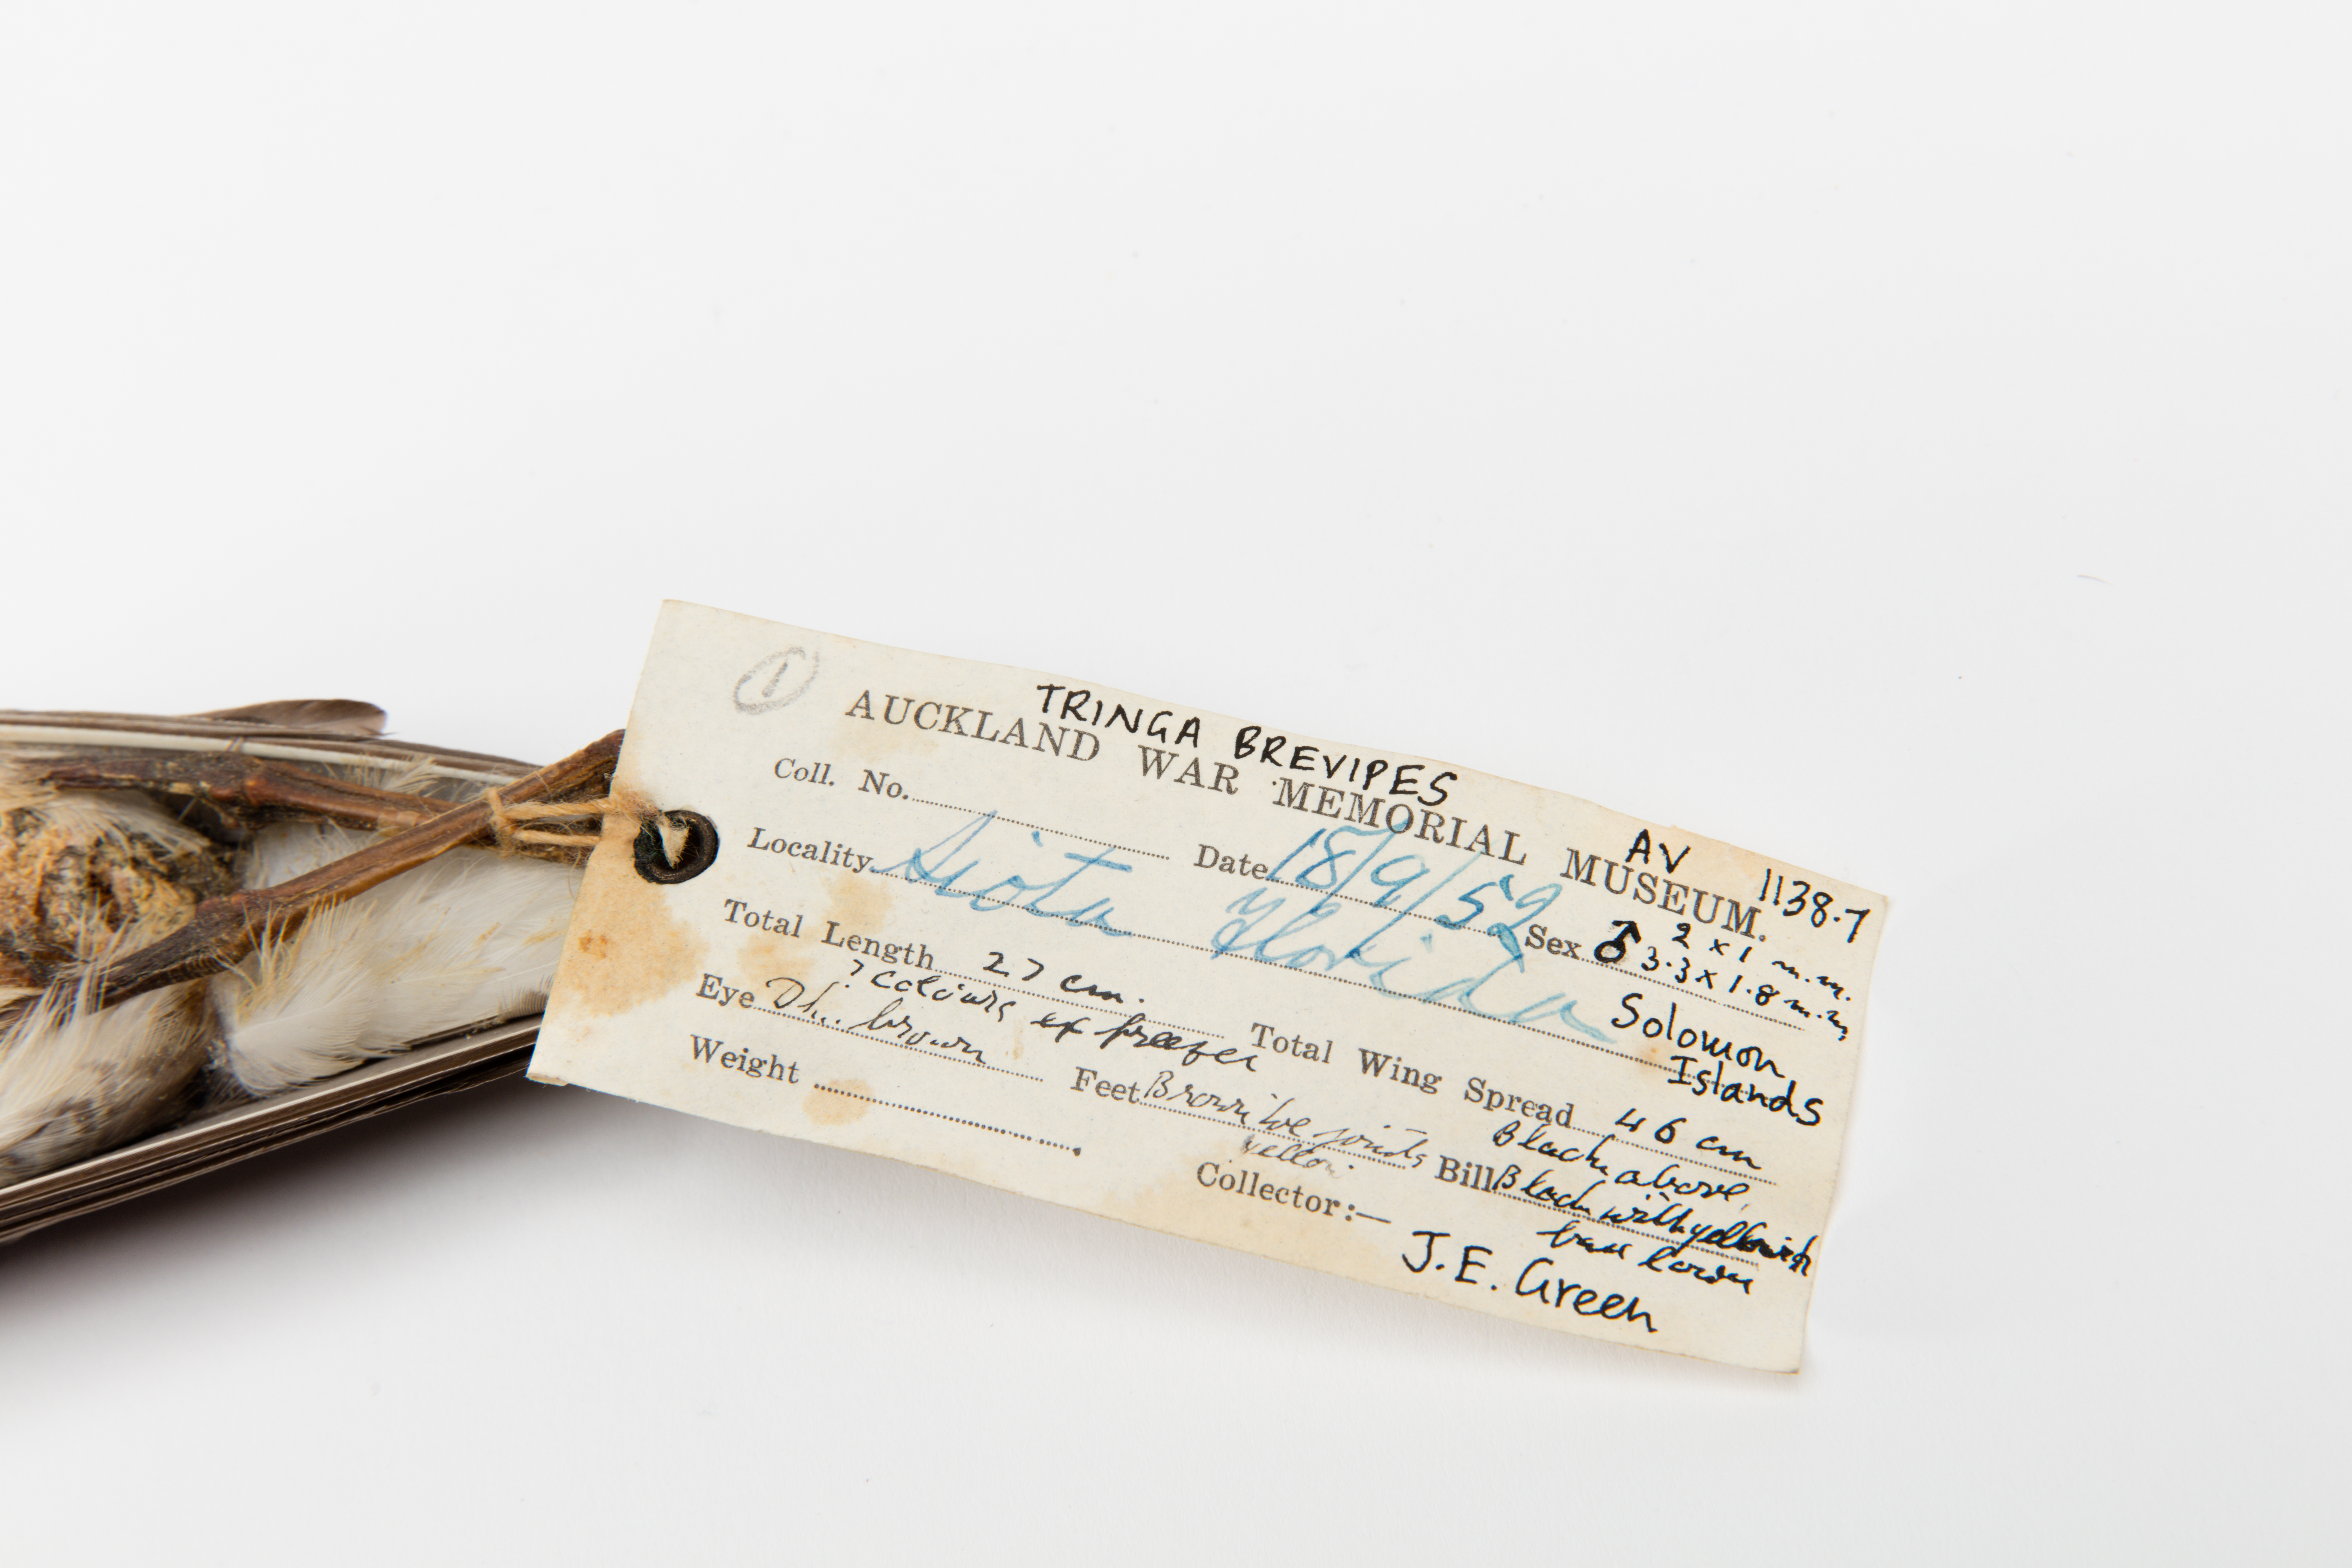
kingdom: Animalia
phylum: Chordata
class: Aves
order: Charadriiformes
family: Scolopacidae
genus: Tringa
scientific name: Tringa brevipes
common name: Grey-tailed tattler
